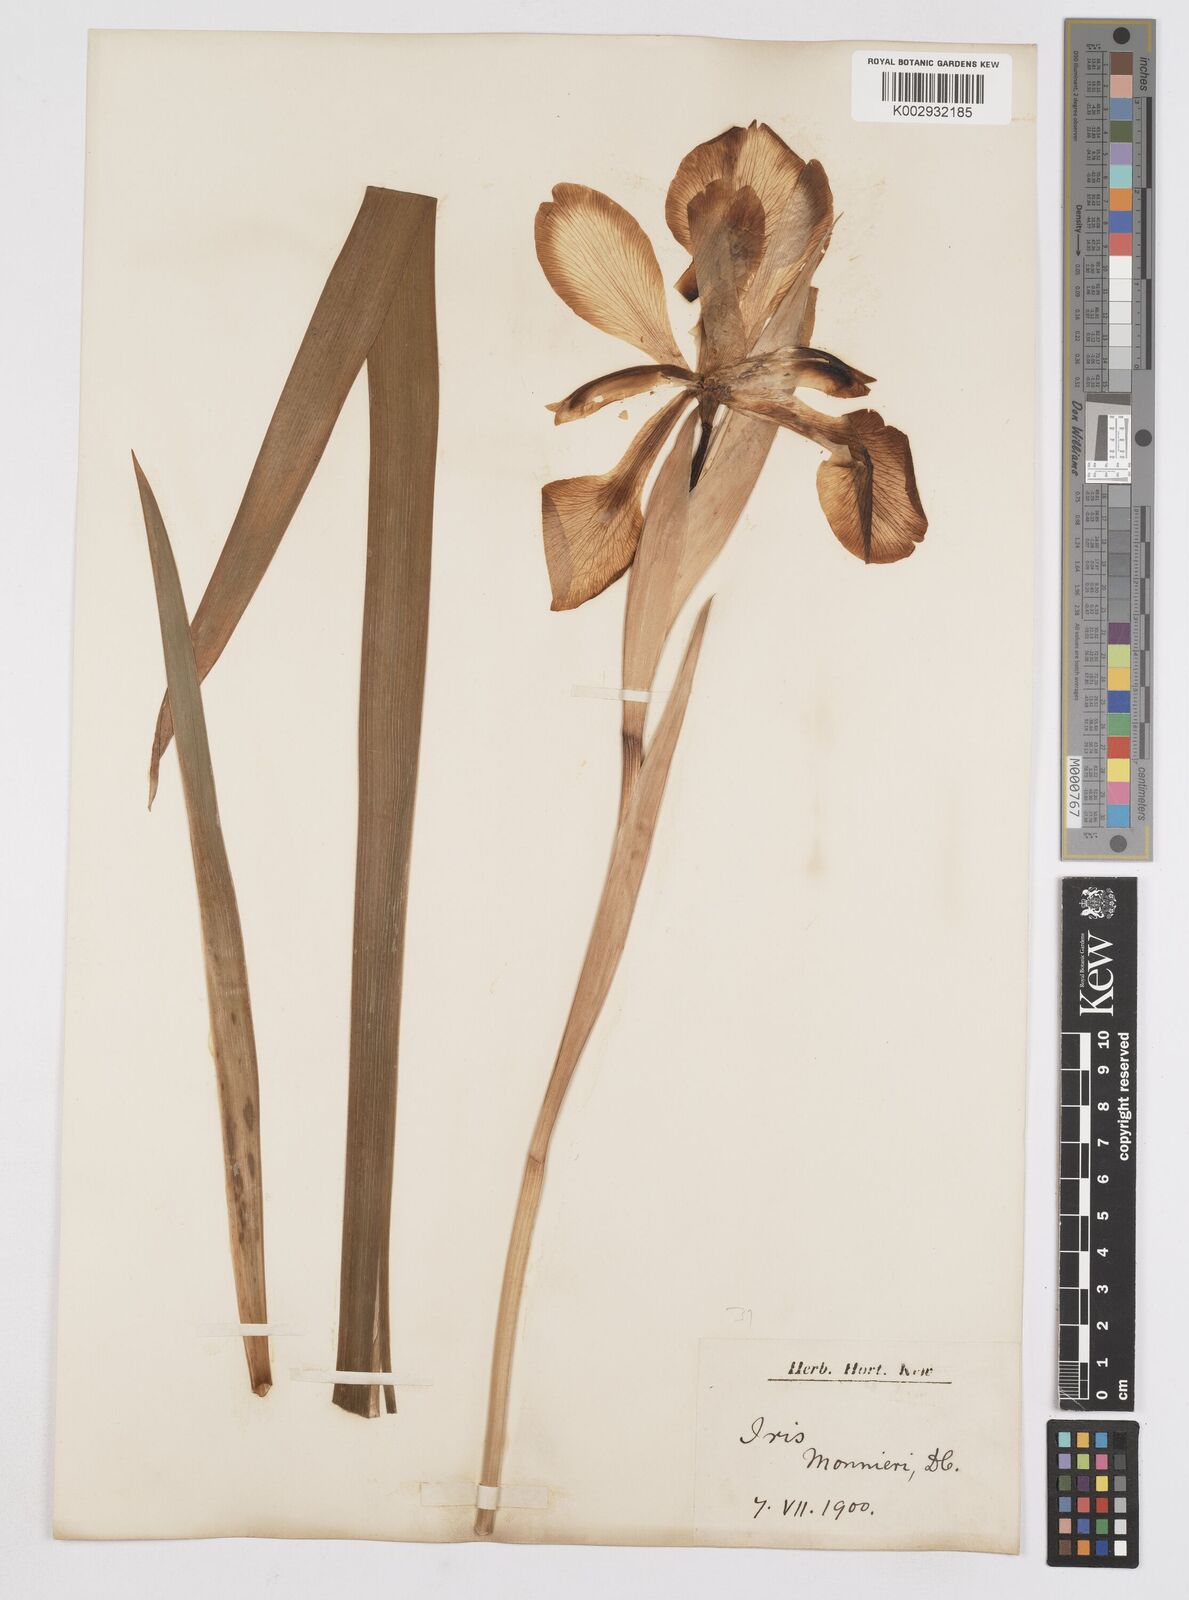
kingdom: Plantae
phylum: Tracheophyta
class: Liliopsida
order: Asparagales
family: Iridaceae
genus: Iris
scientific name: Iris orientalis
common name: Turkish iris
